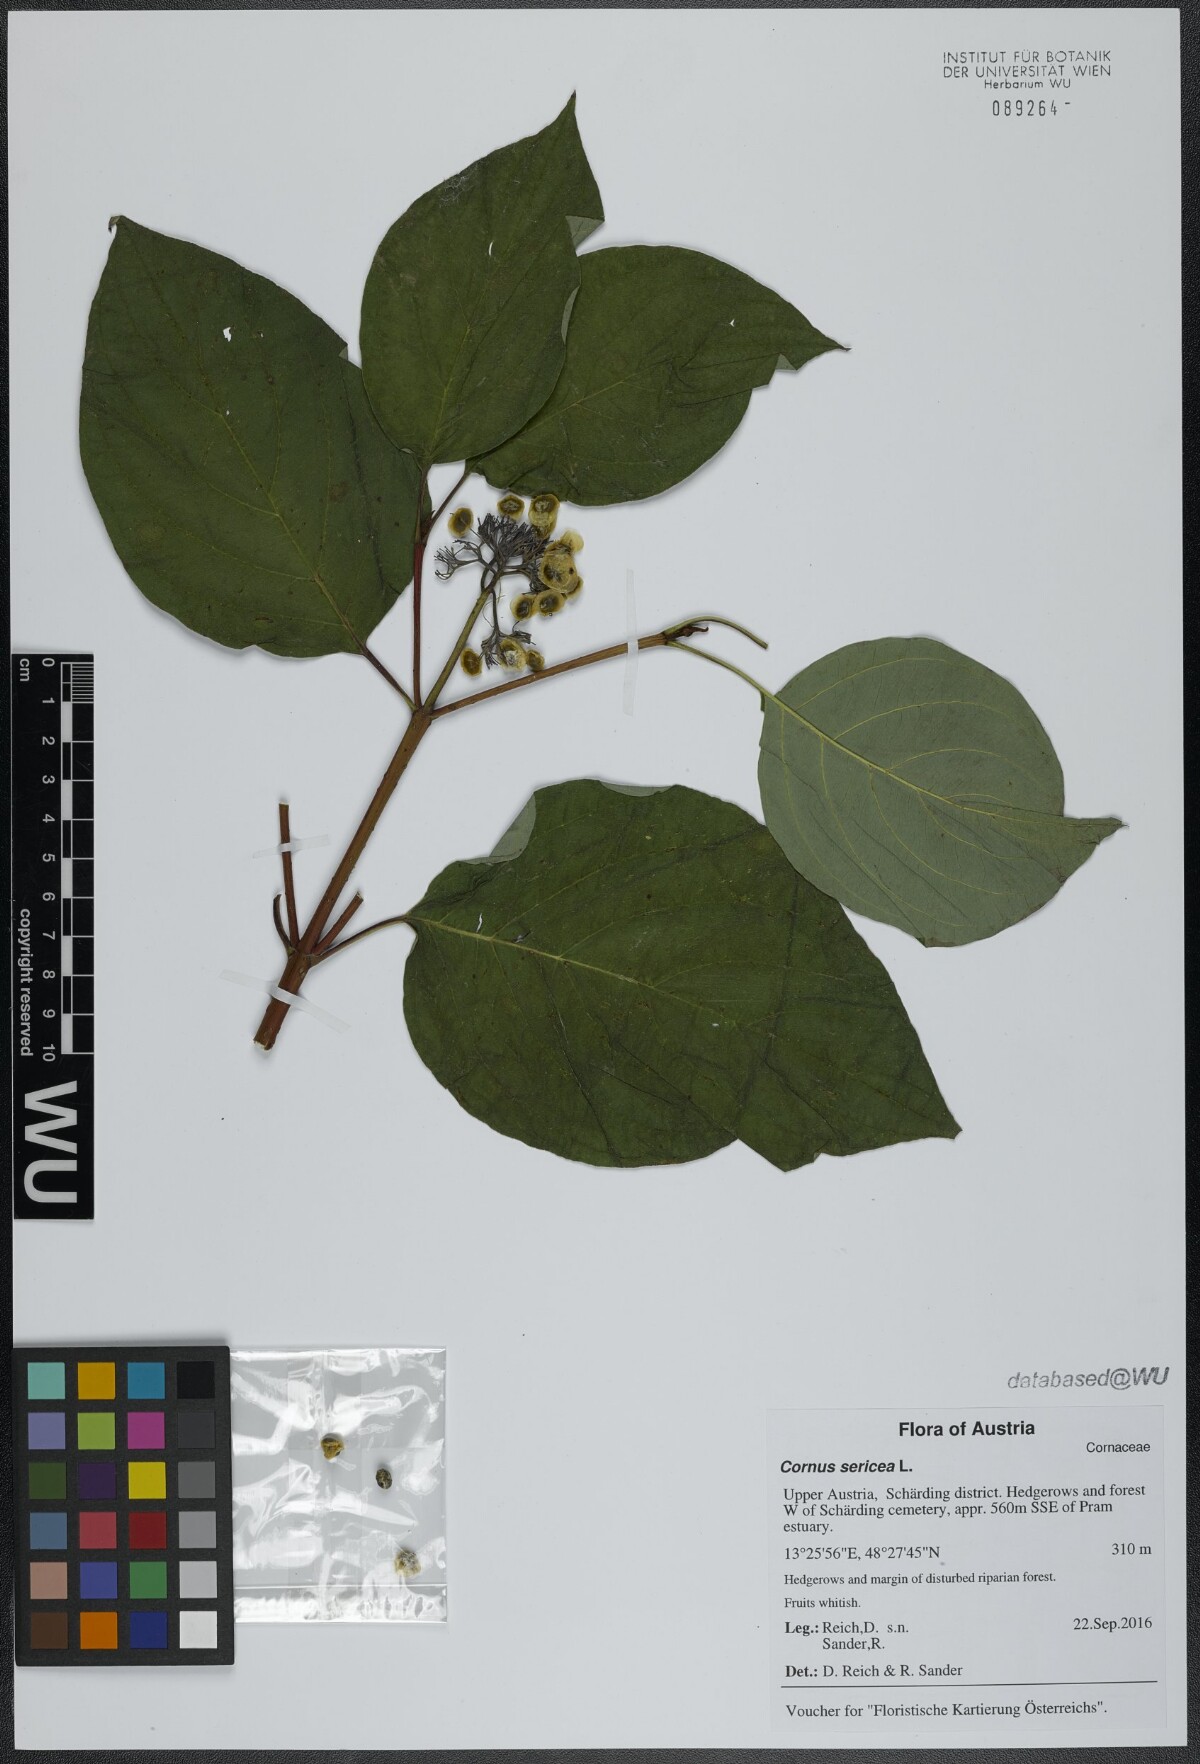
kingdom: Plantae
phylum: Tracheophyta
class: Magnoliopsida
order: Cornales
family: Cornaceae
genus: Cornus
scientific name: Cornus sericea
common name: Red-osier dogwood
